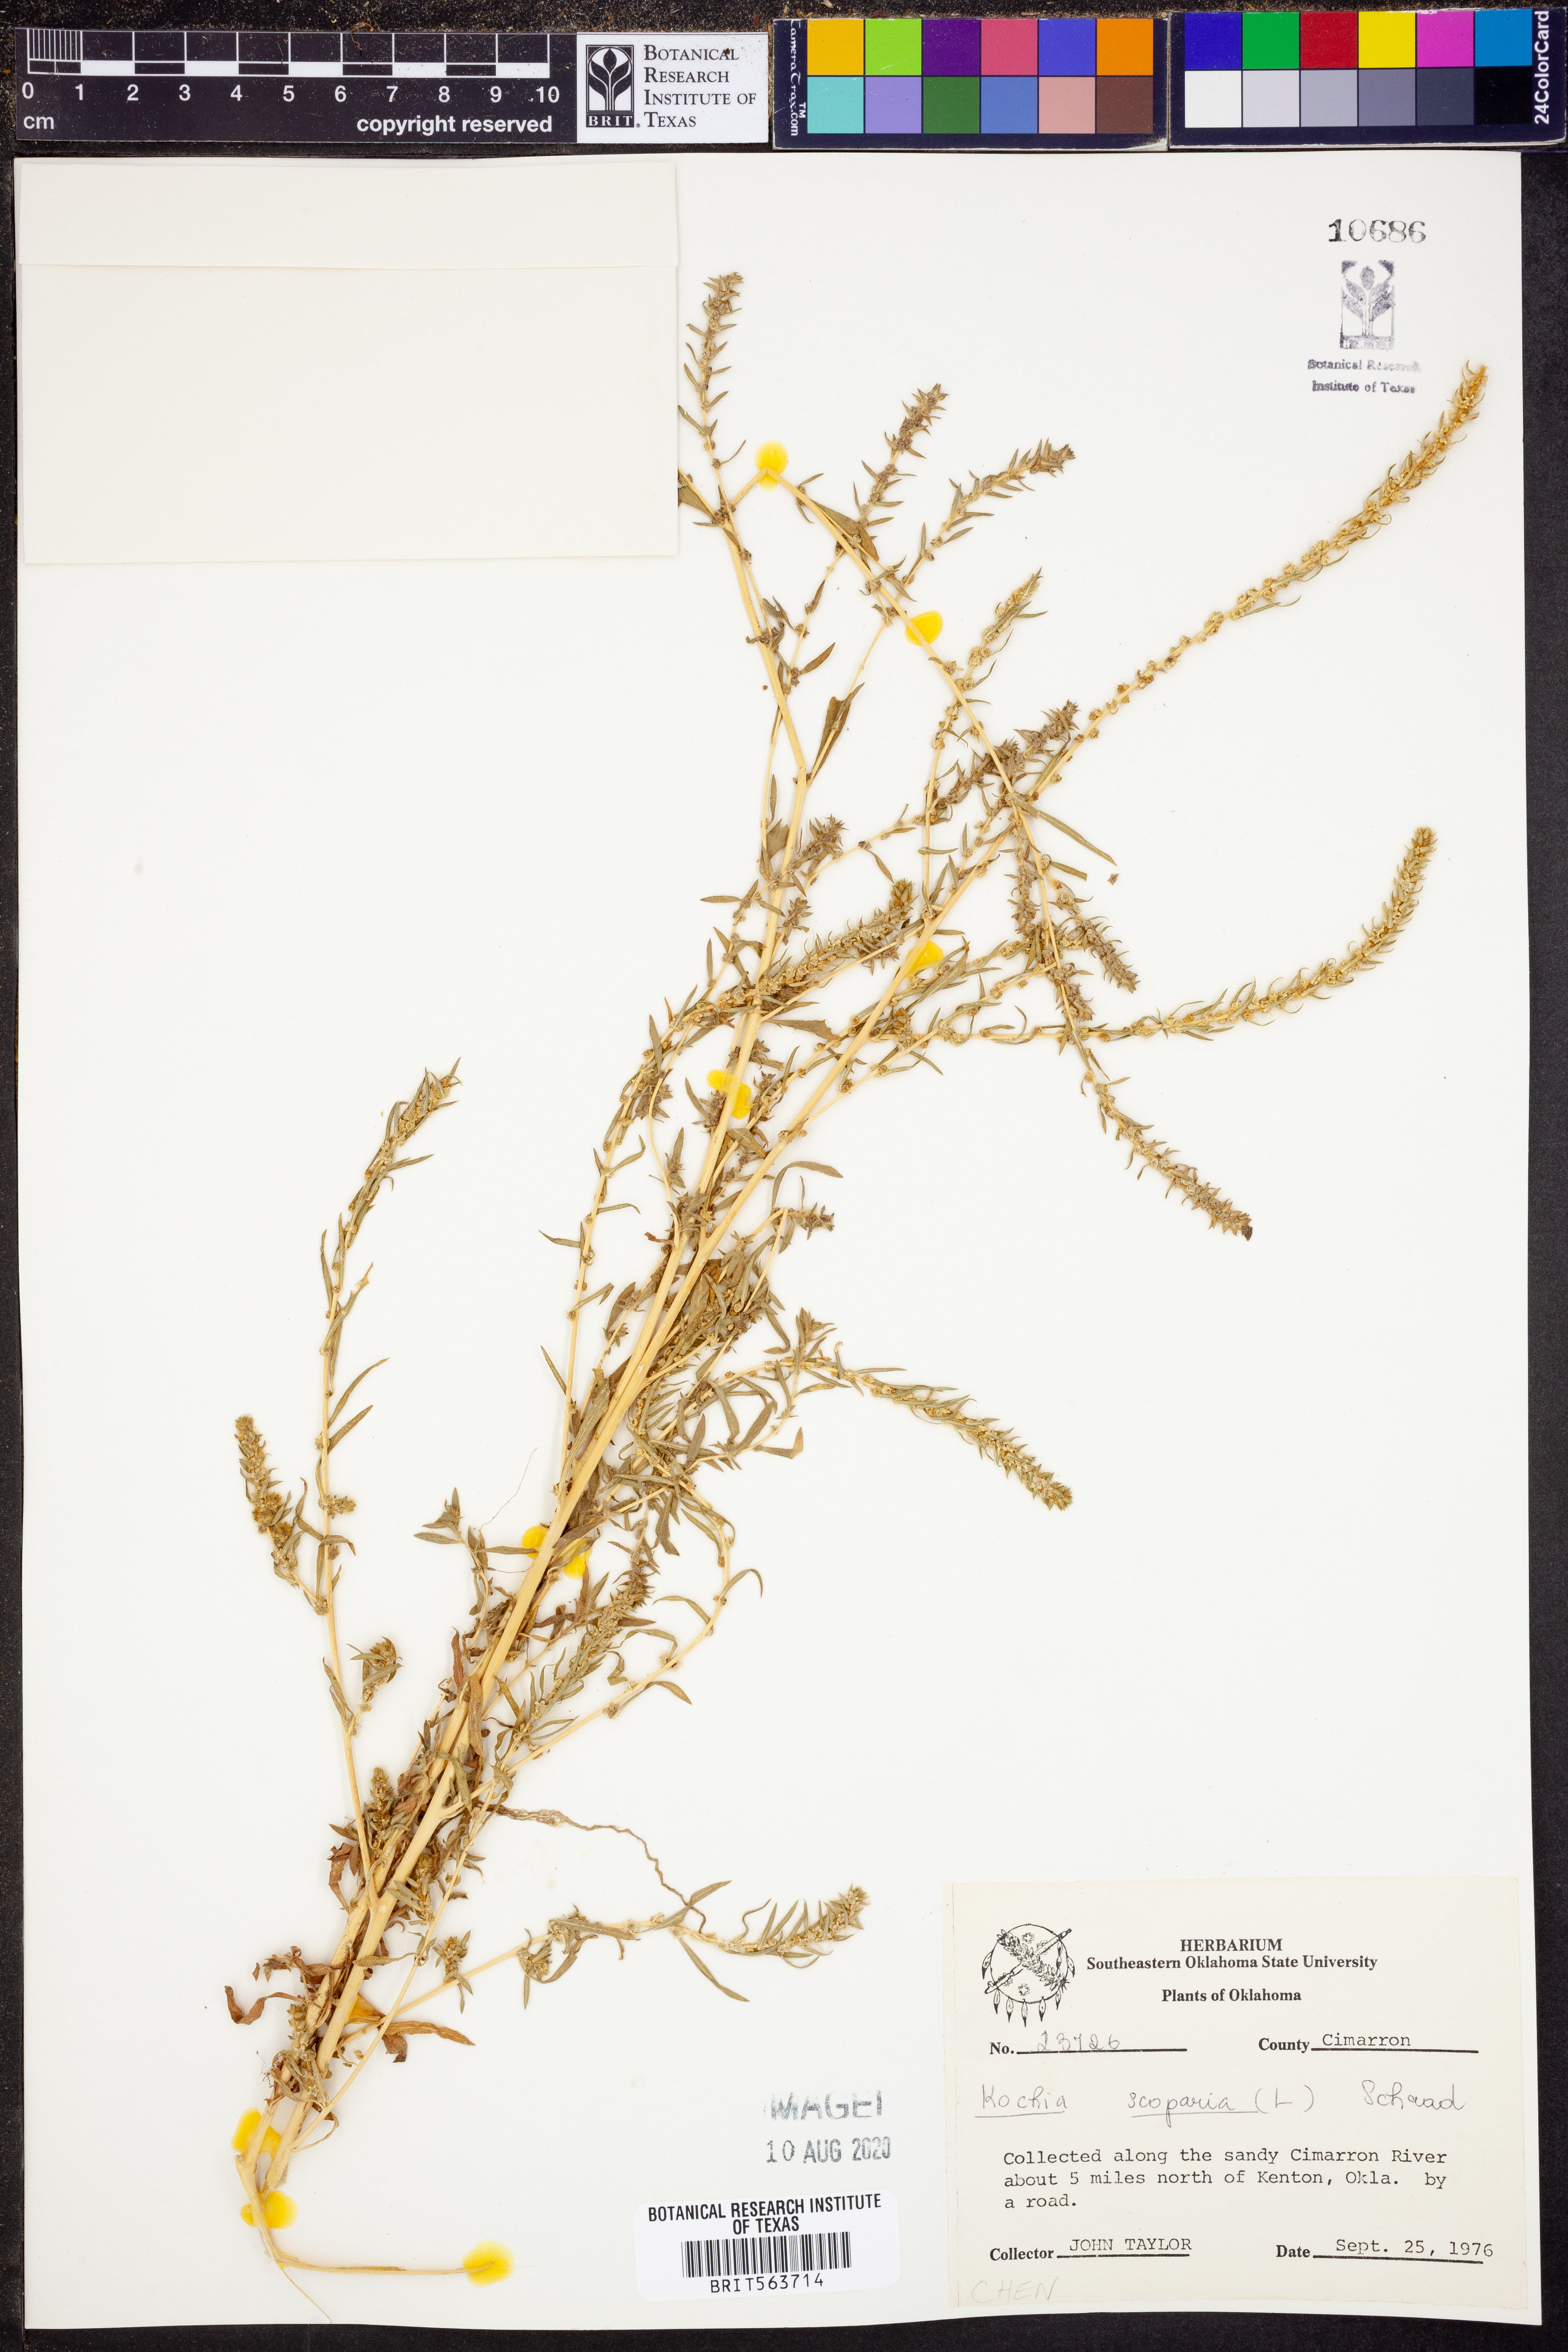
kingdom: Plantae
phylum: Tracheophyta
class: Magnoliopsida
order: Caryophyllales
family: Amaranthaceae
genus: Bassia
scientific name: Bassia scoparia
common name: Belvedere
